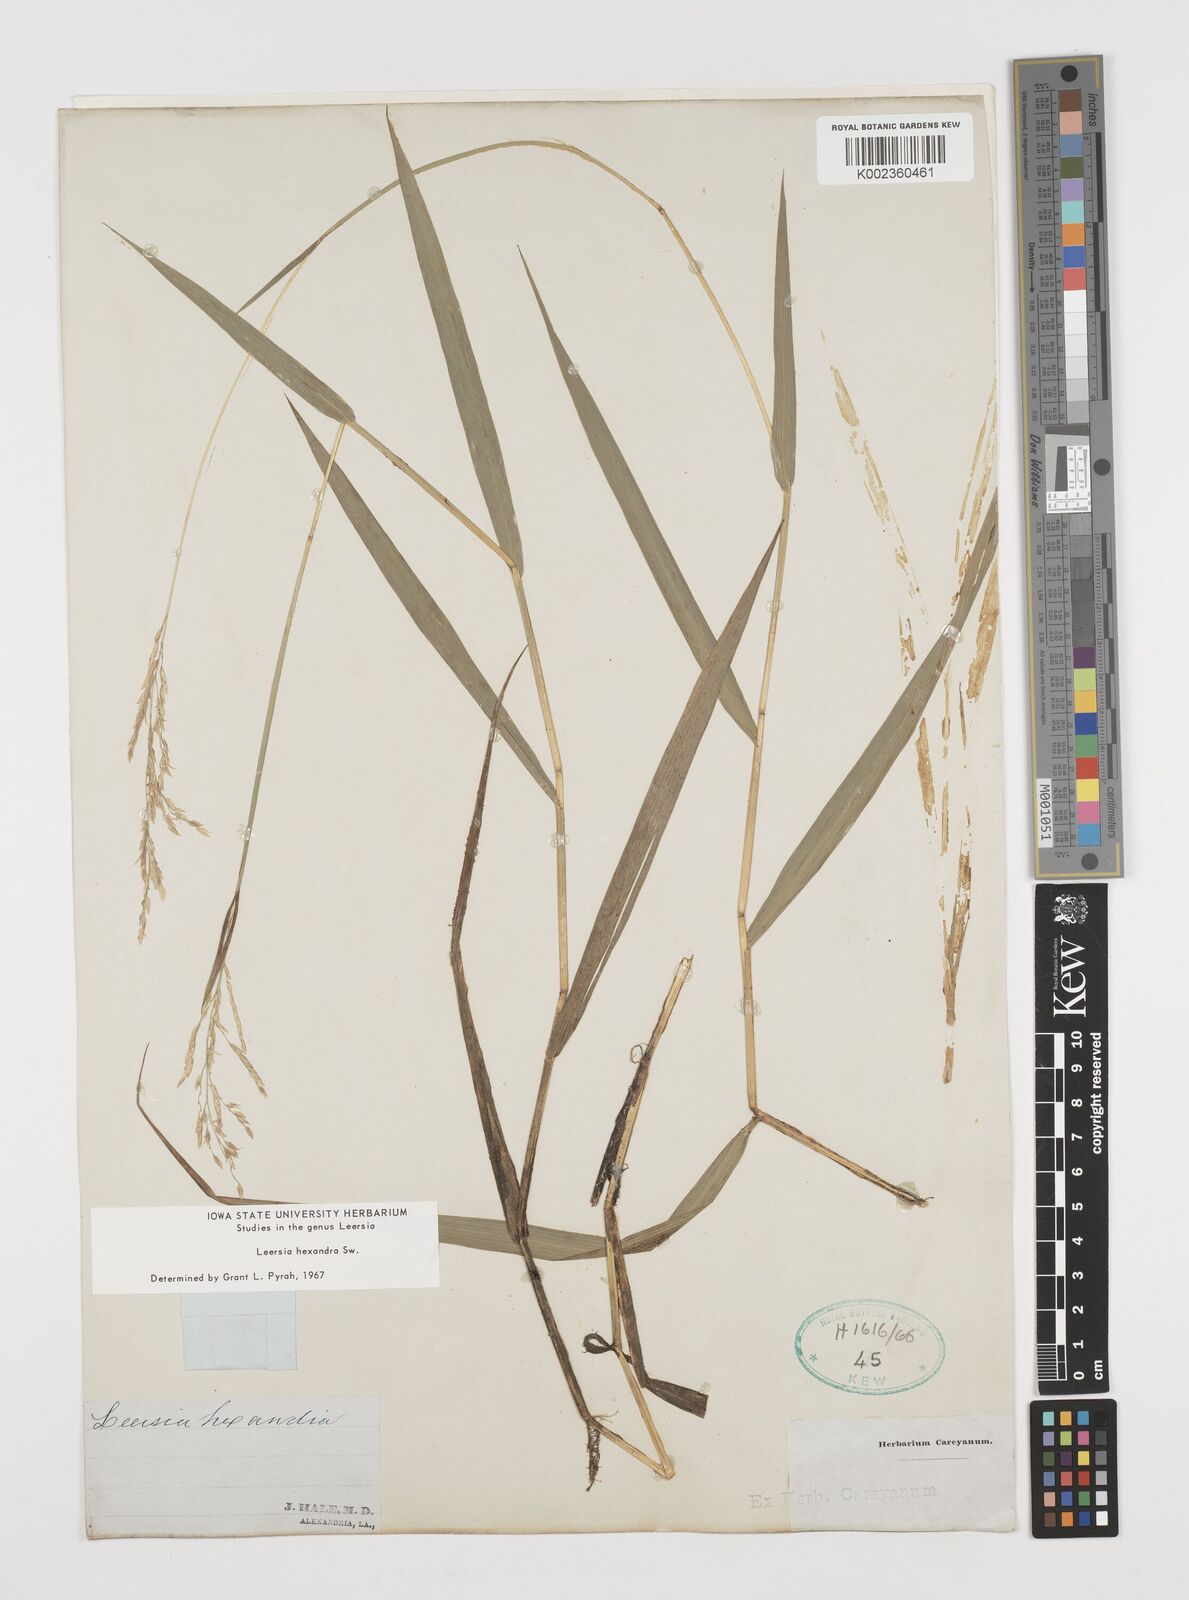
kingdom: Plantae
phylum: Tracheophyta
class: Liliopsida
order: Poales
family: Poaceae
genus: Leersia
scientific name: Leersia hexandra
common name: Southern cut grass
